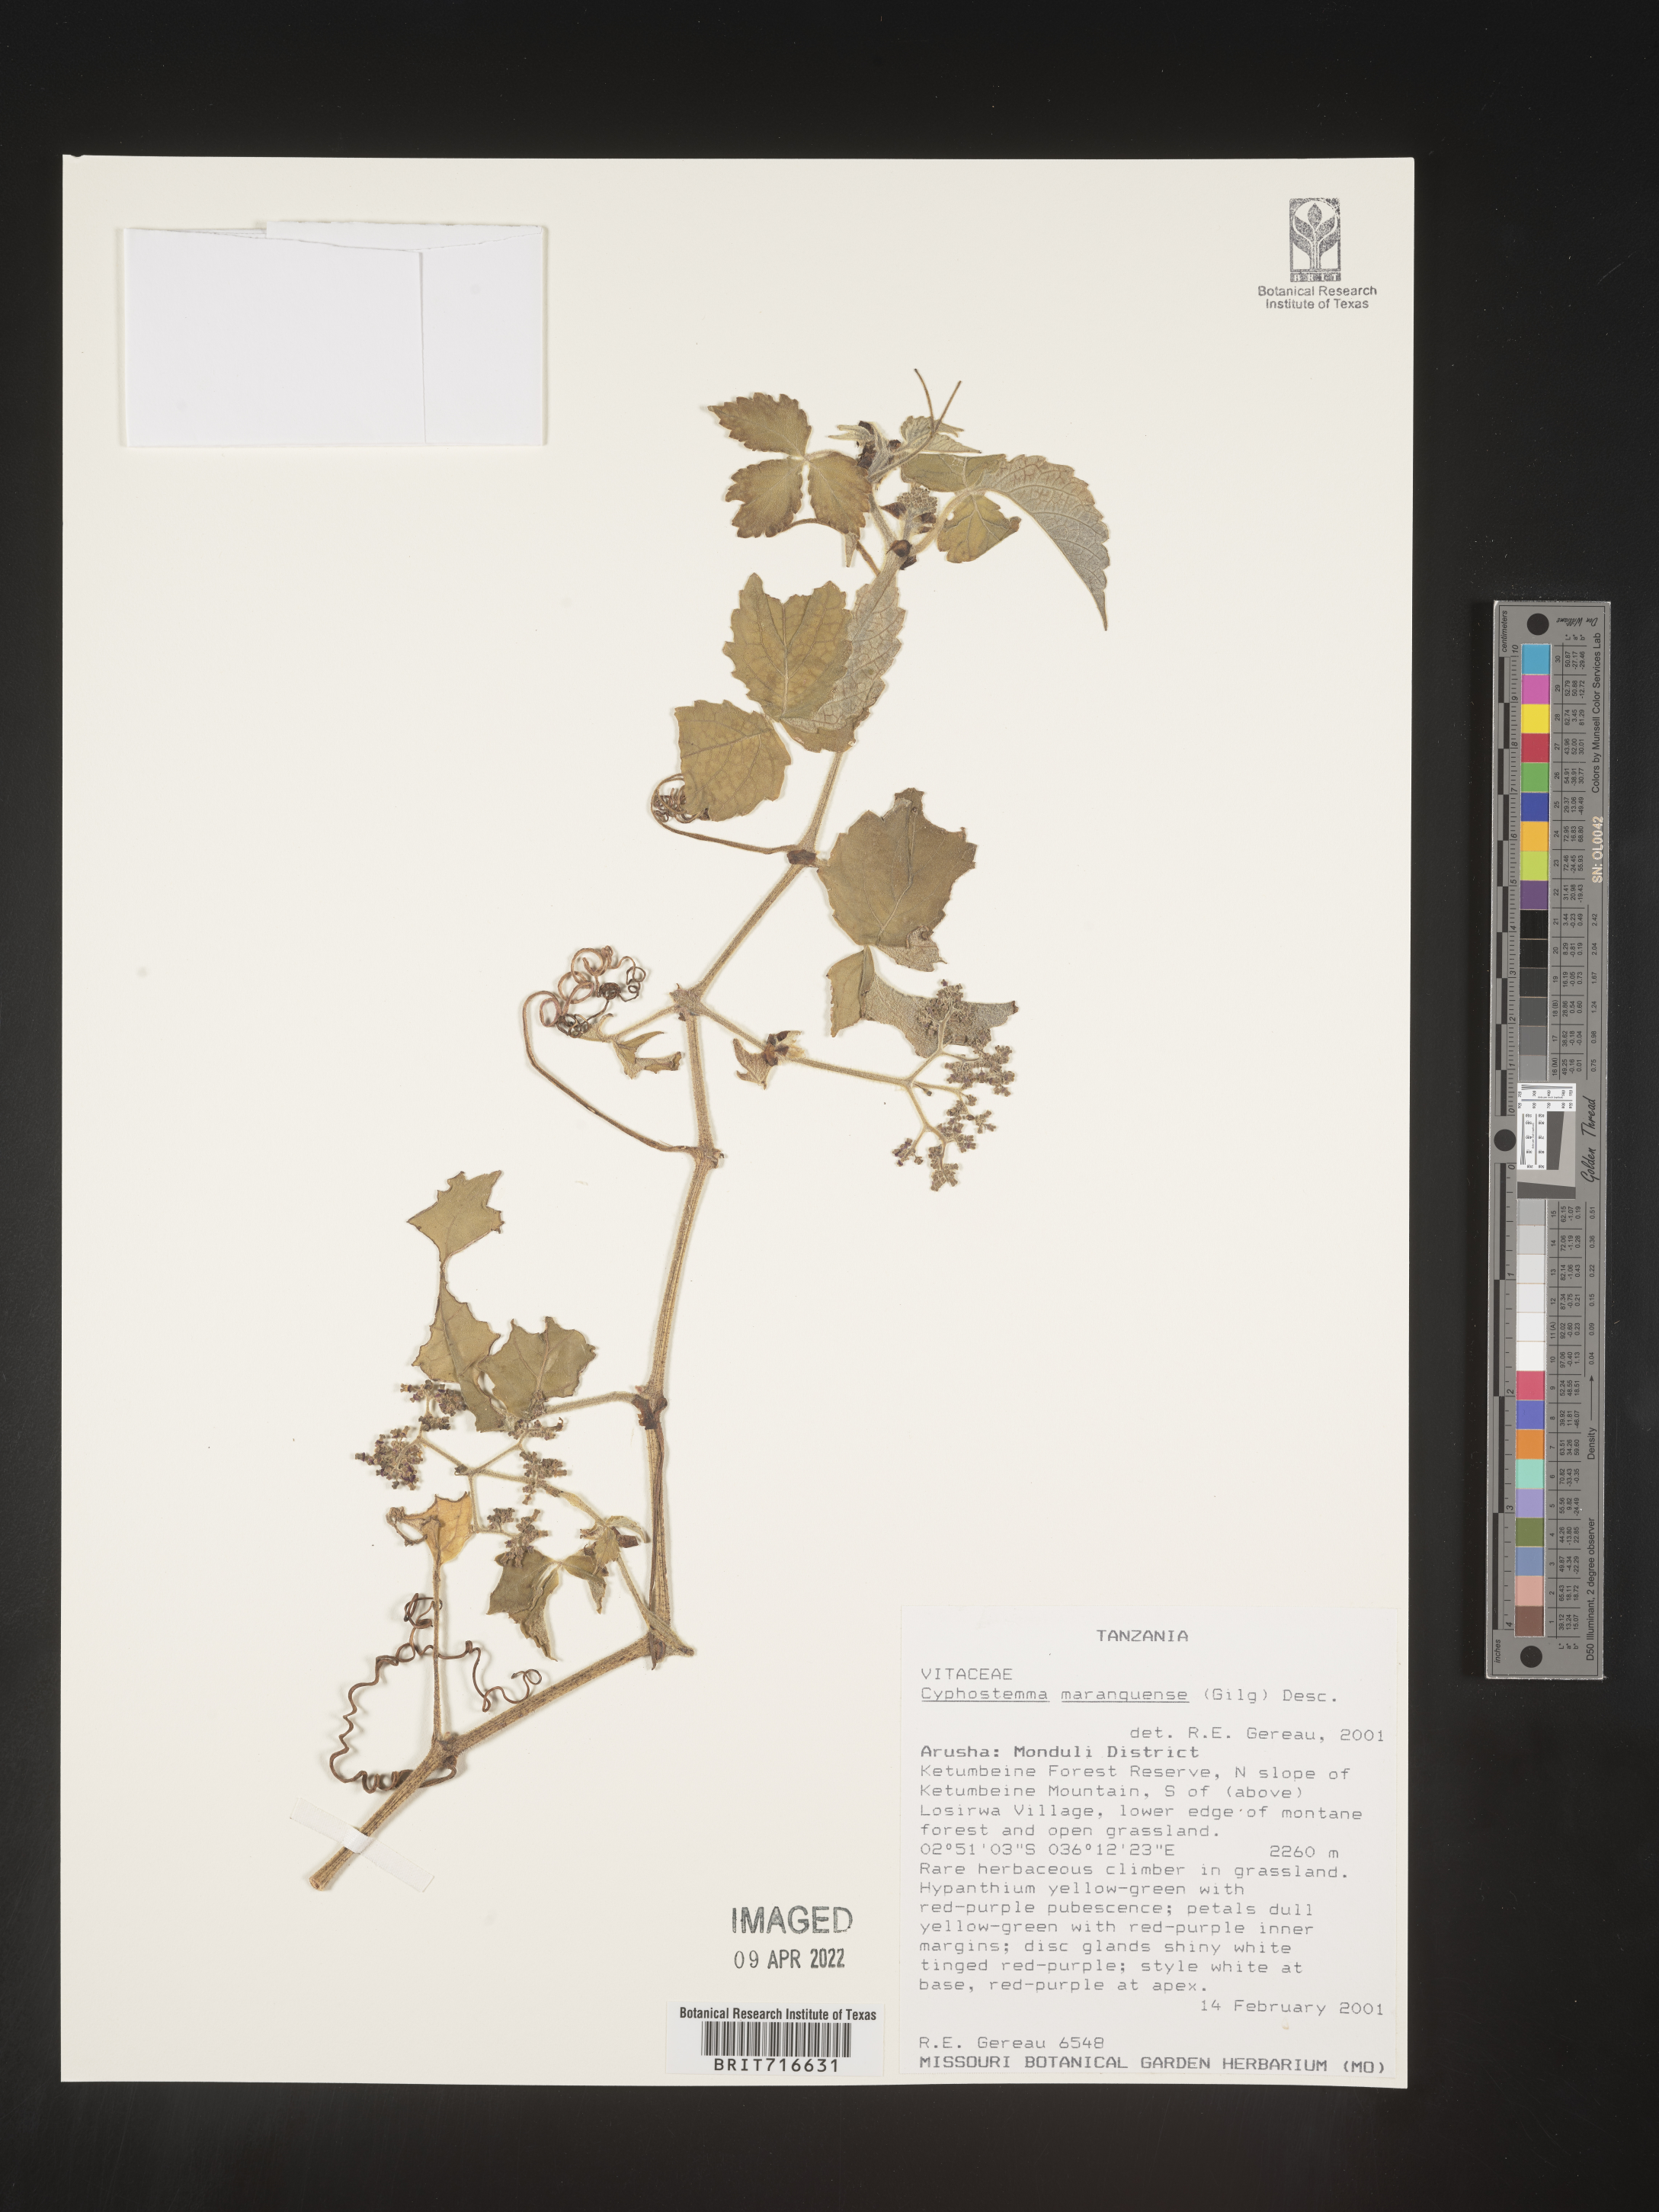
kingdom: Plantae
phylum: Tracheophyta
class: Magnoliopsida
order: Vitales
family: Vitaceae
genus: Cyphostemma
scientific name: Cyphostemma
